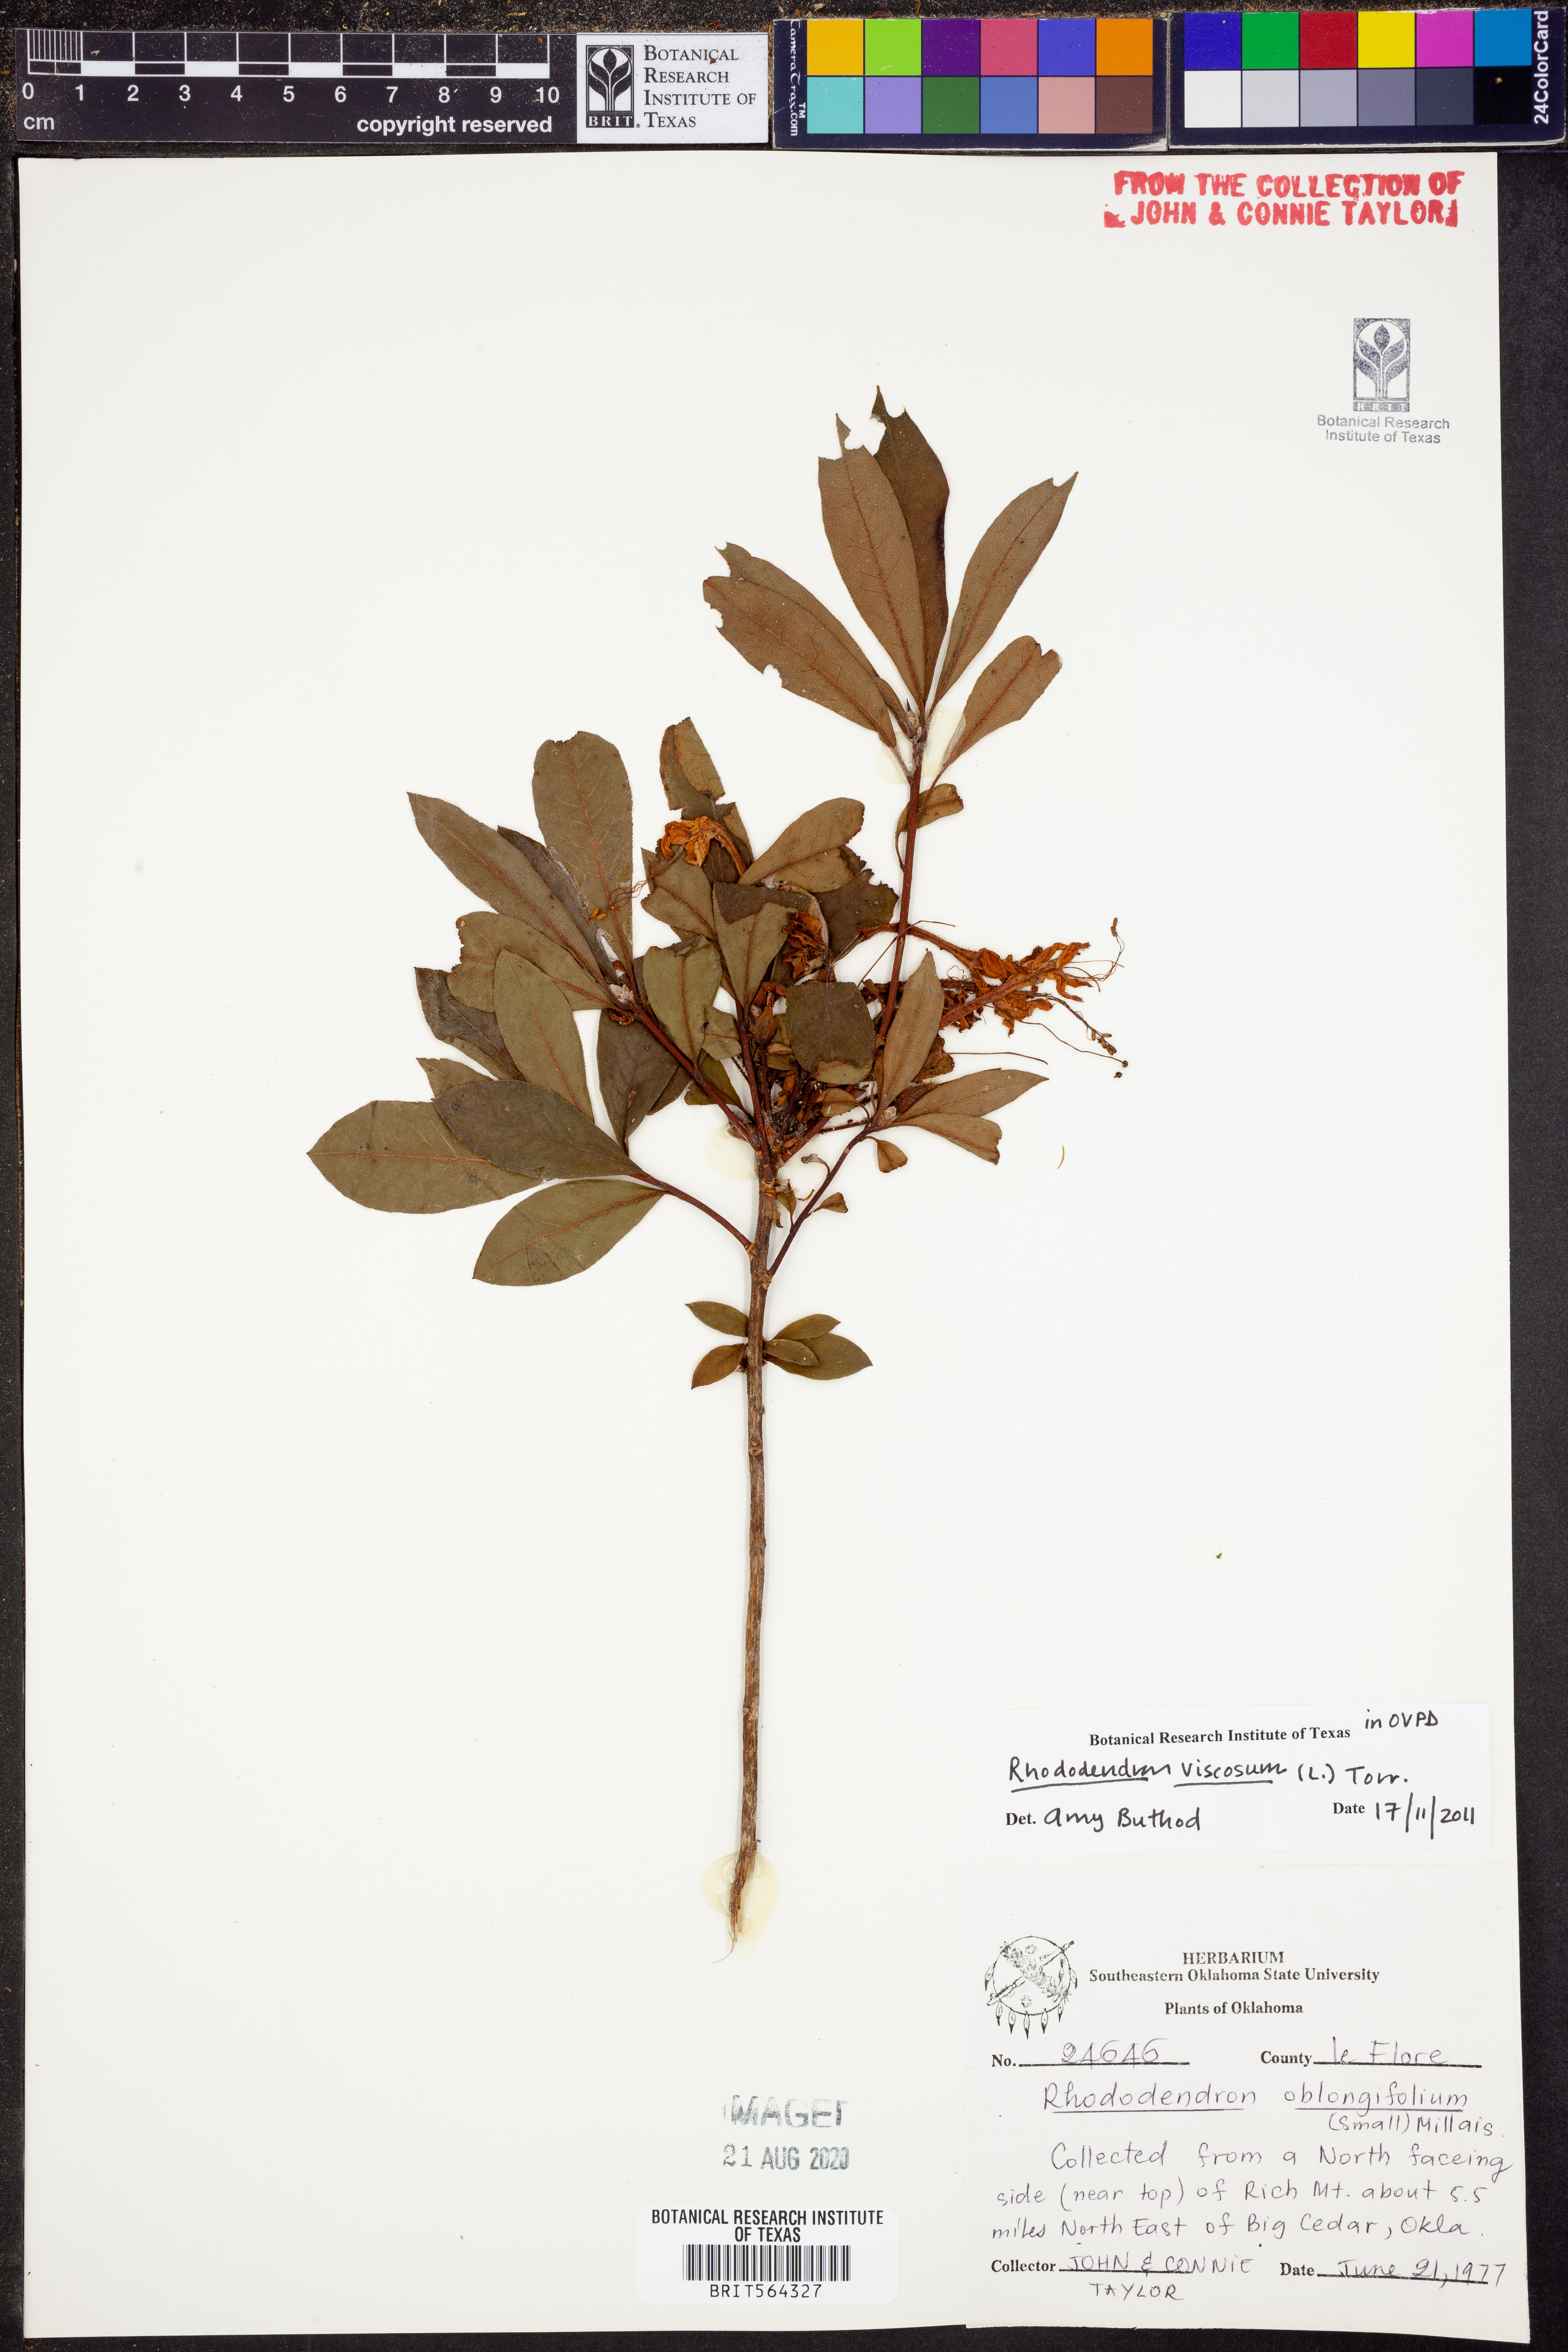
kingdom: Plantae
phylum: Tracheophyta
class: Magnoliopsida
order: Ericales
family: Ericaceae
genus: Rhododendron
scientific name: Rhododendron viscosum
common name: Clammy azalea
